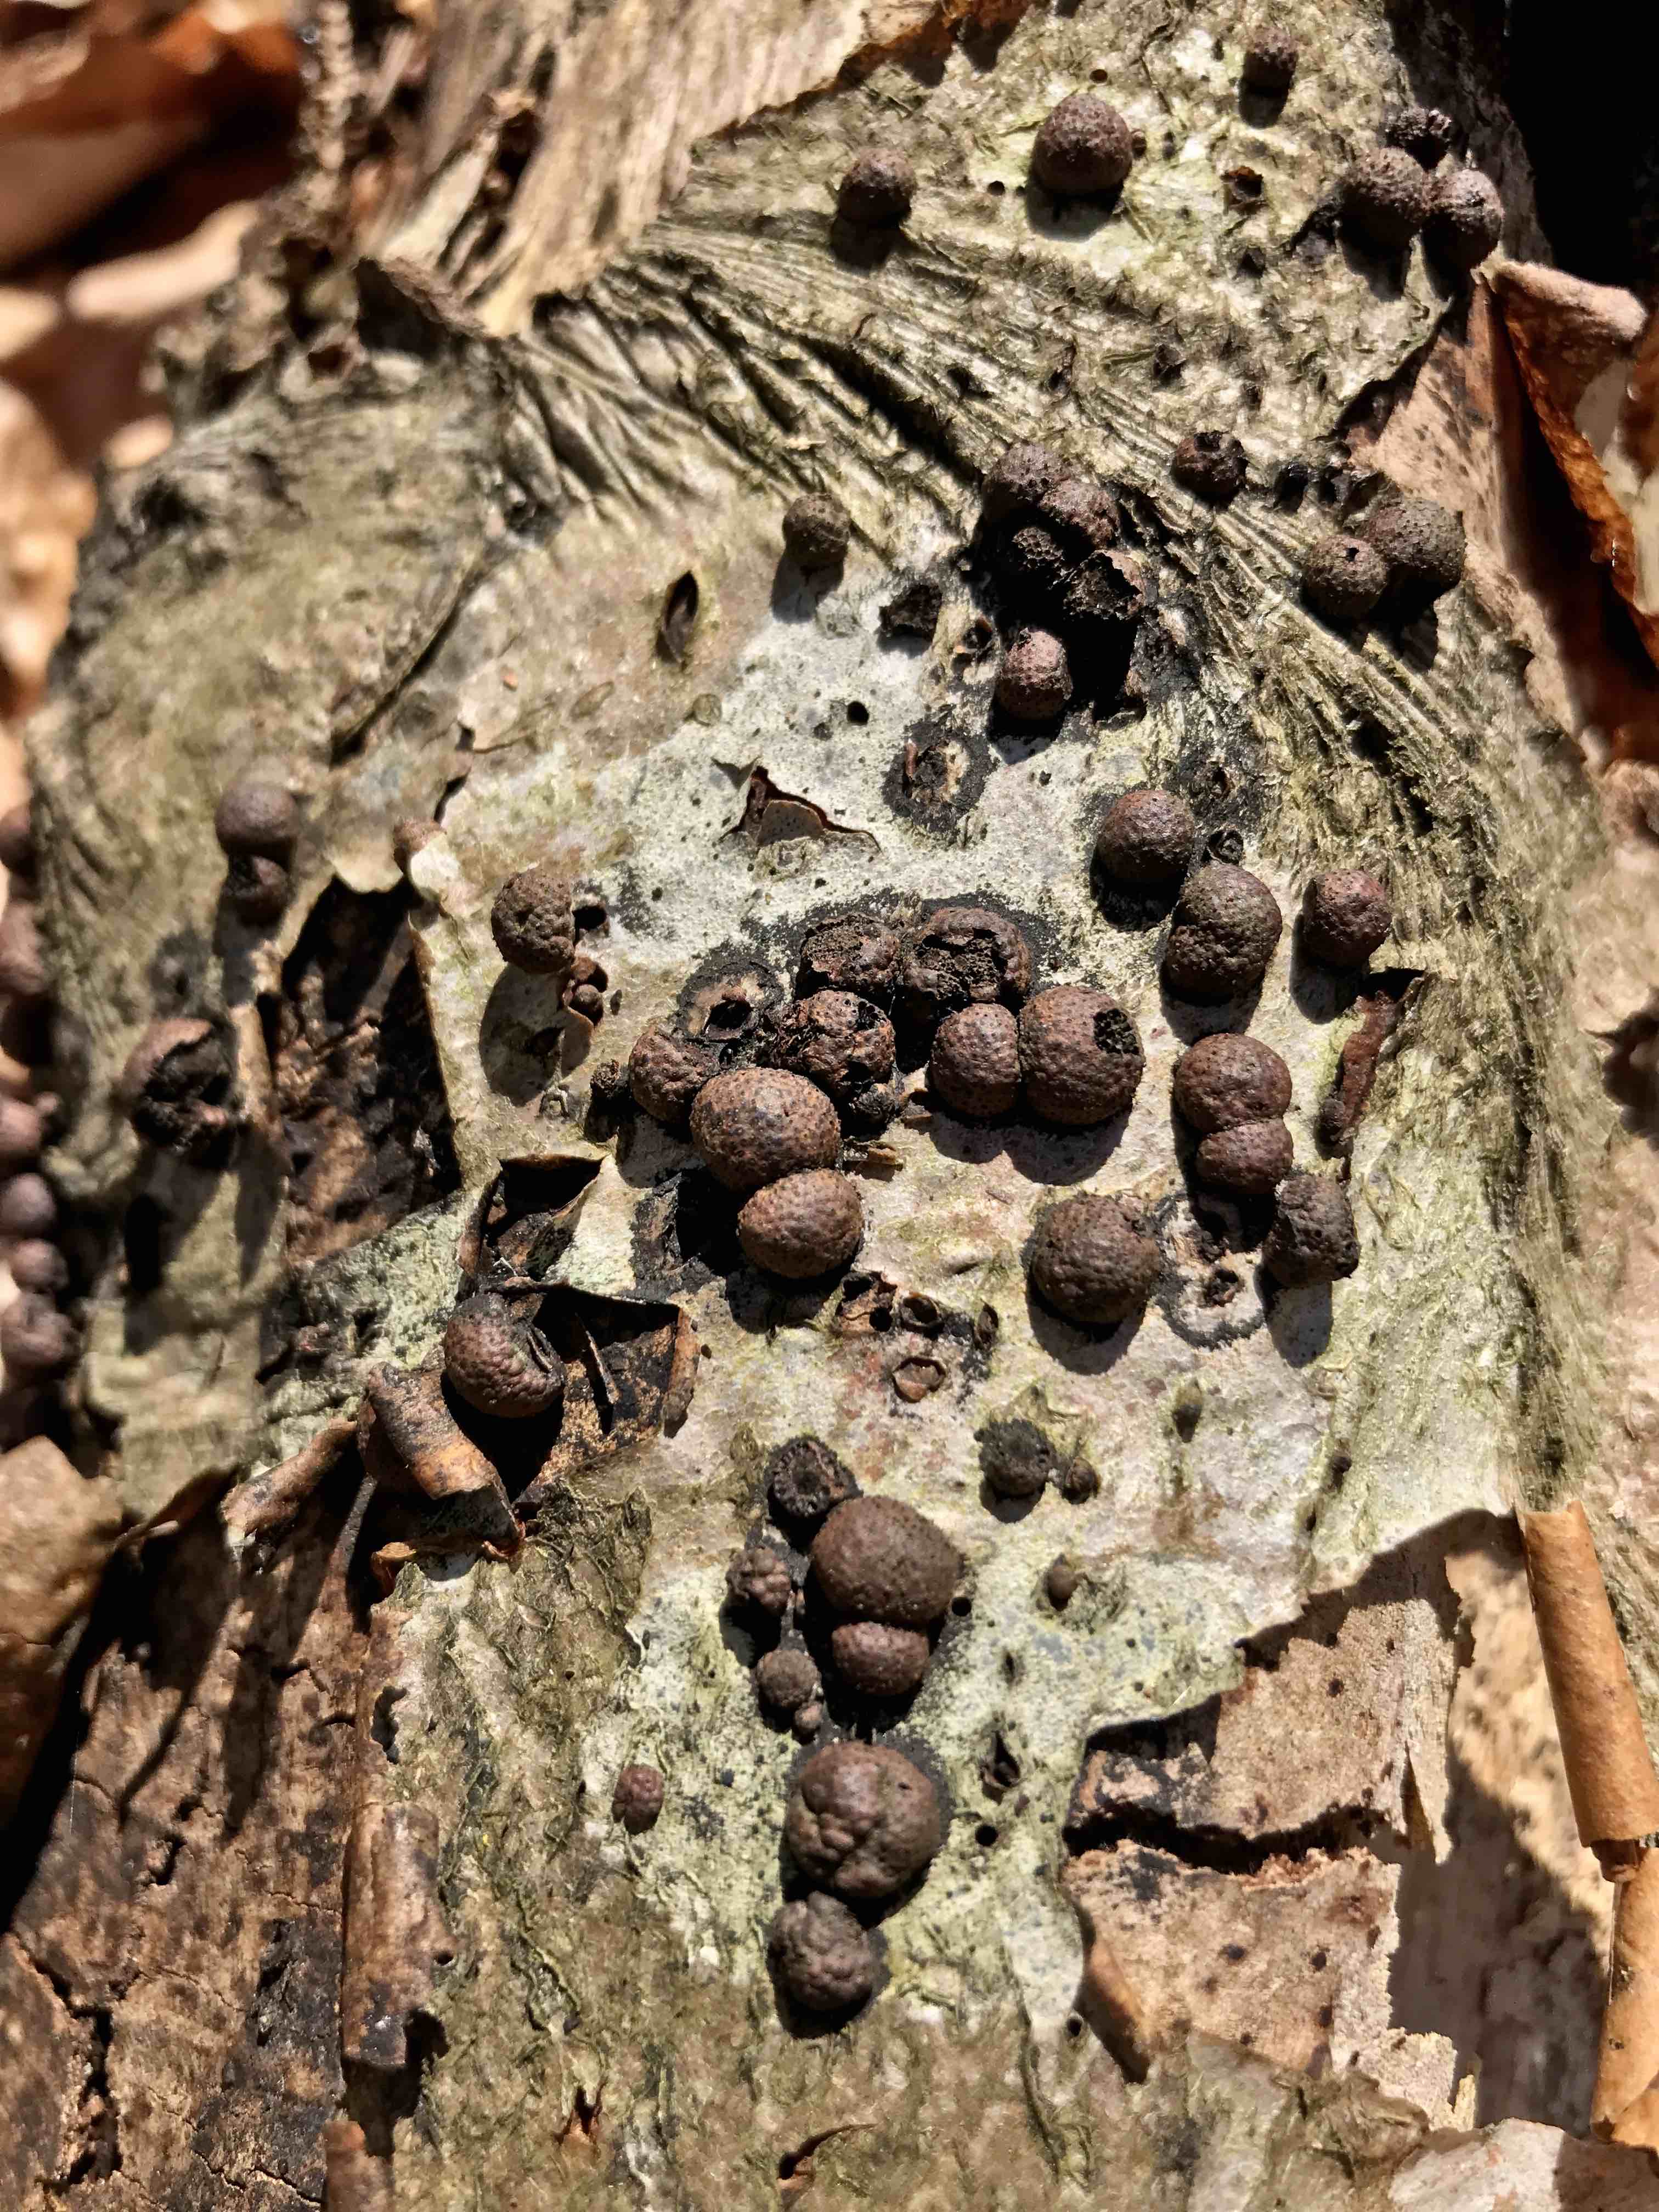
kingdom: Fungi
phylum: Ascomycota
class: Sordariomycetes
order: Xylariales
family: Hypoxylaceae
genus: Hypoxylon
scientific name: Hypoxylon fragiforme
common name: kuljordbær
